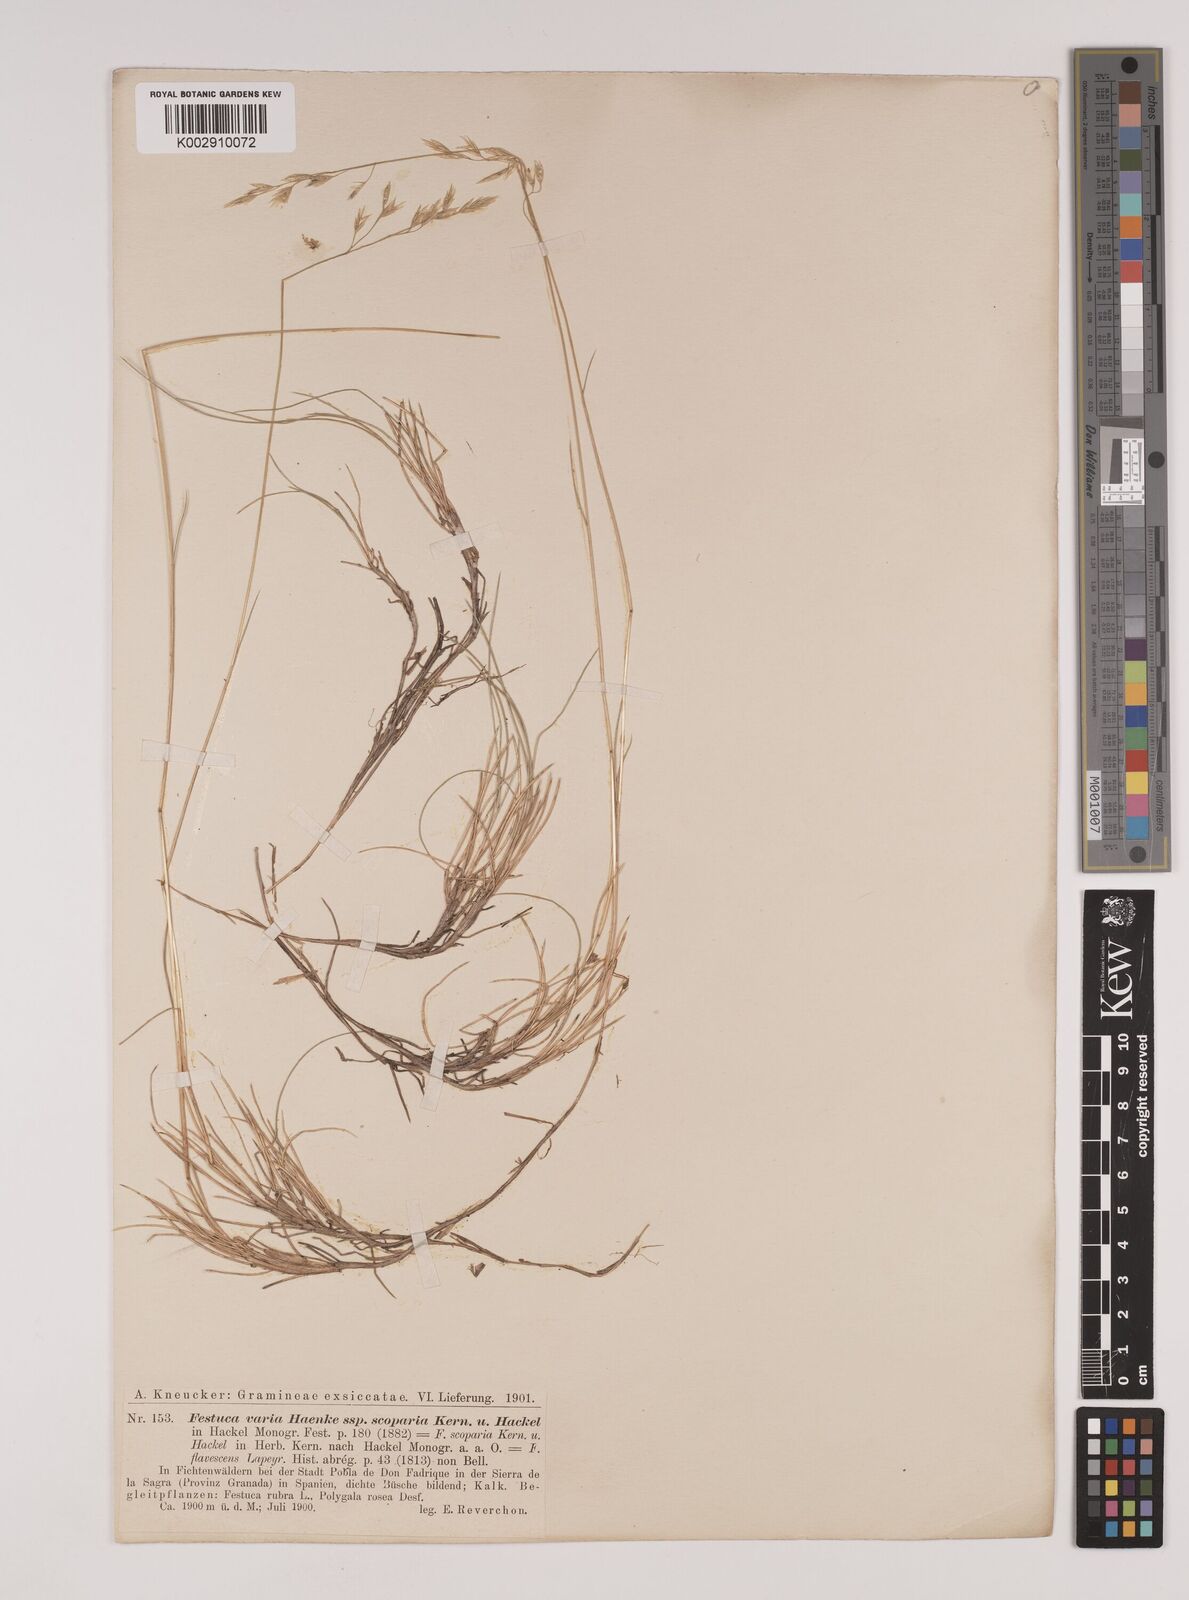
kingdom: Plantae
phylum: Tracheophyta
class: Liliopsida
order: Poales
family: Poaceae
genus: Festuca
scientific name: Festuca gautieri
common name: Spiky fescue
